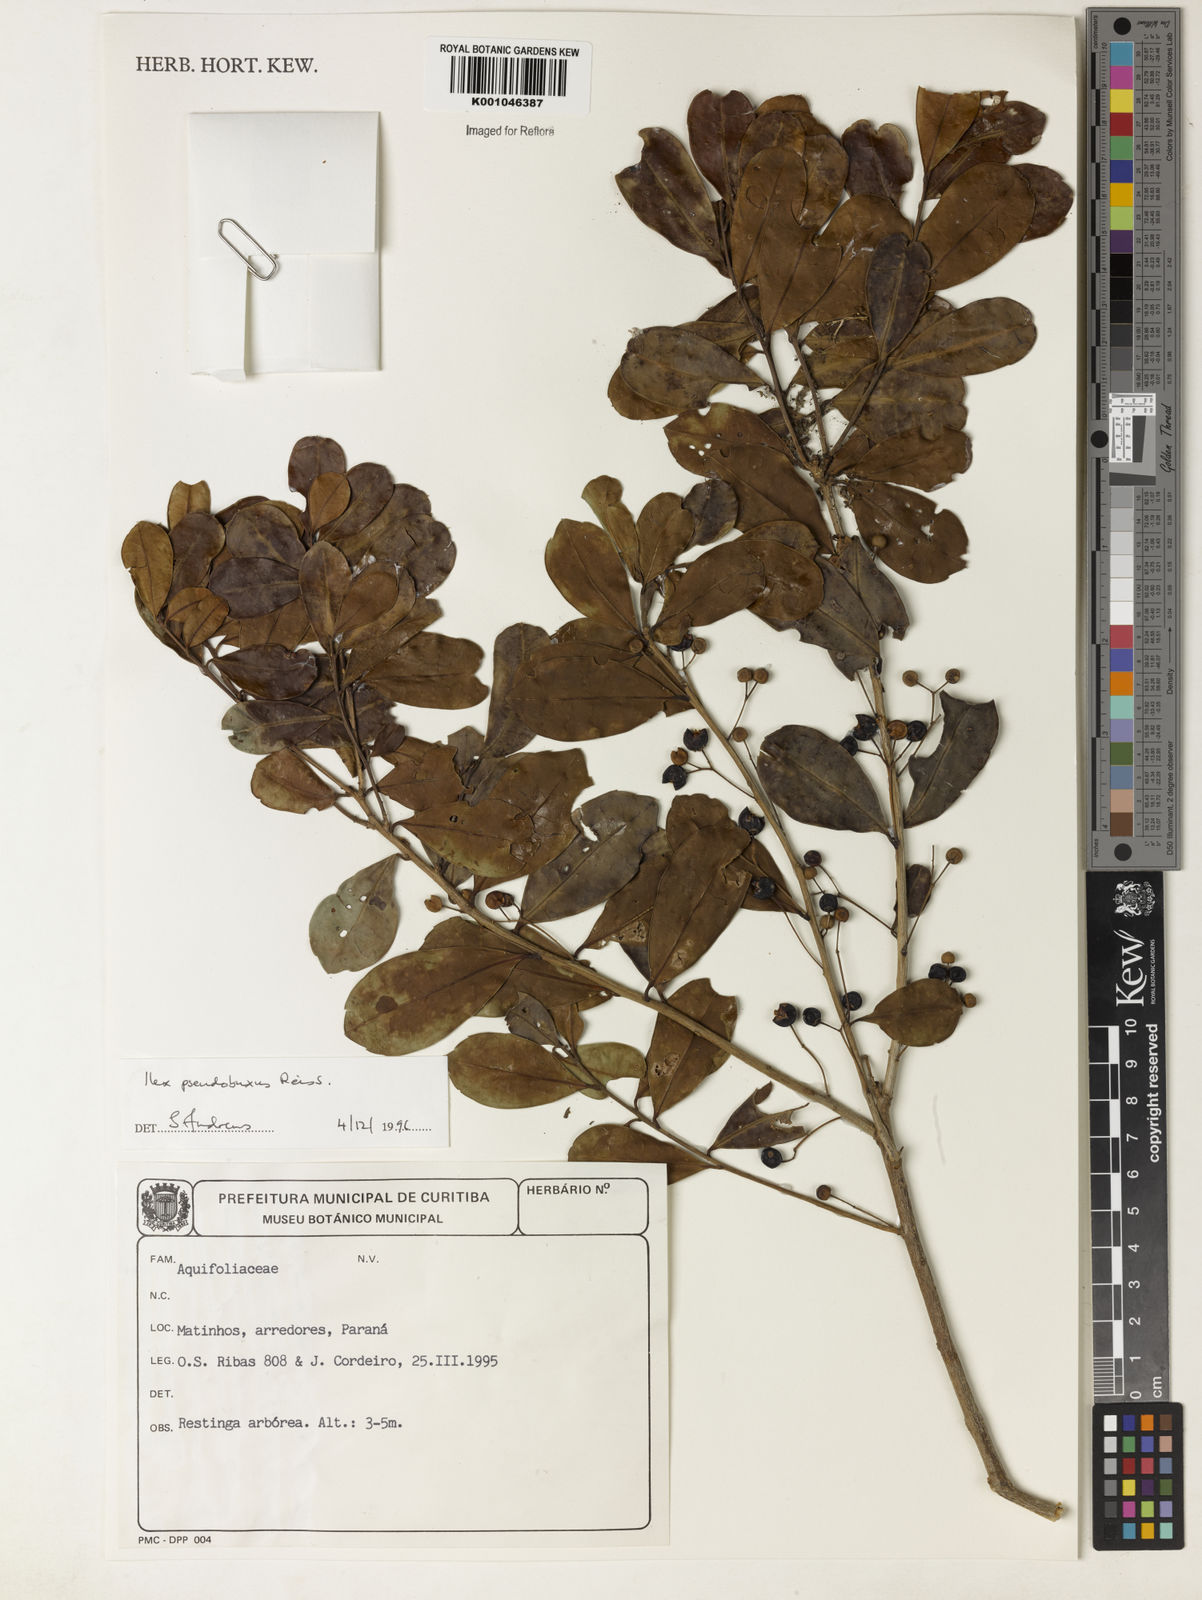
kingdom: Plantae
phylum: Tracheophyta
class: Magnoliopsida
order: Aquifoliales
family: Aquifoliaceae
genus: Ilex
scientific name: Ilex pseudobuxus
